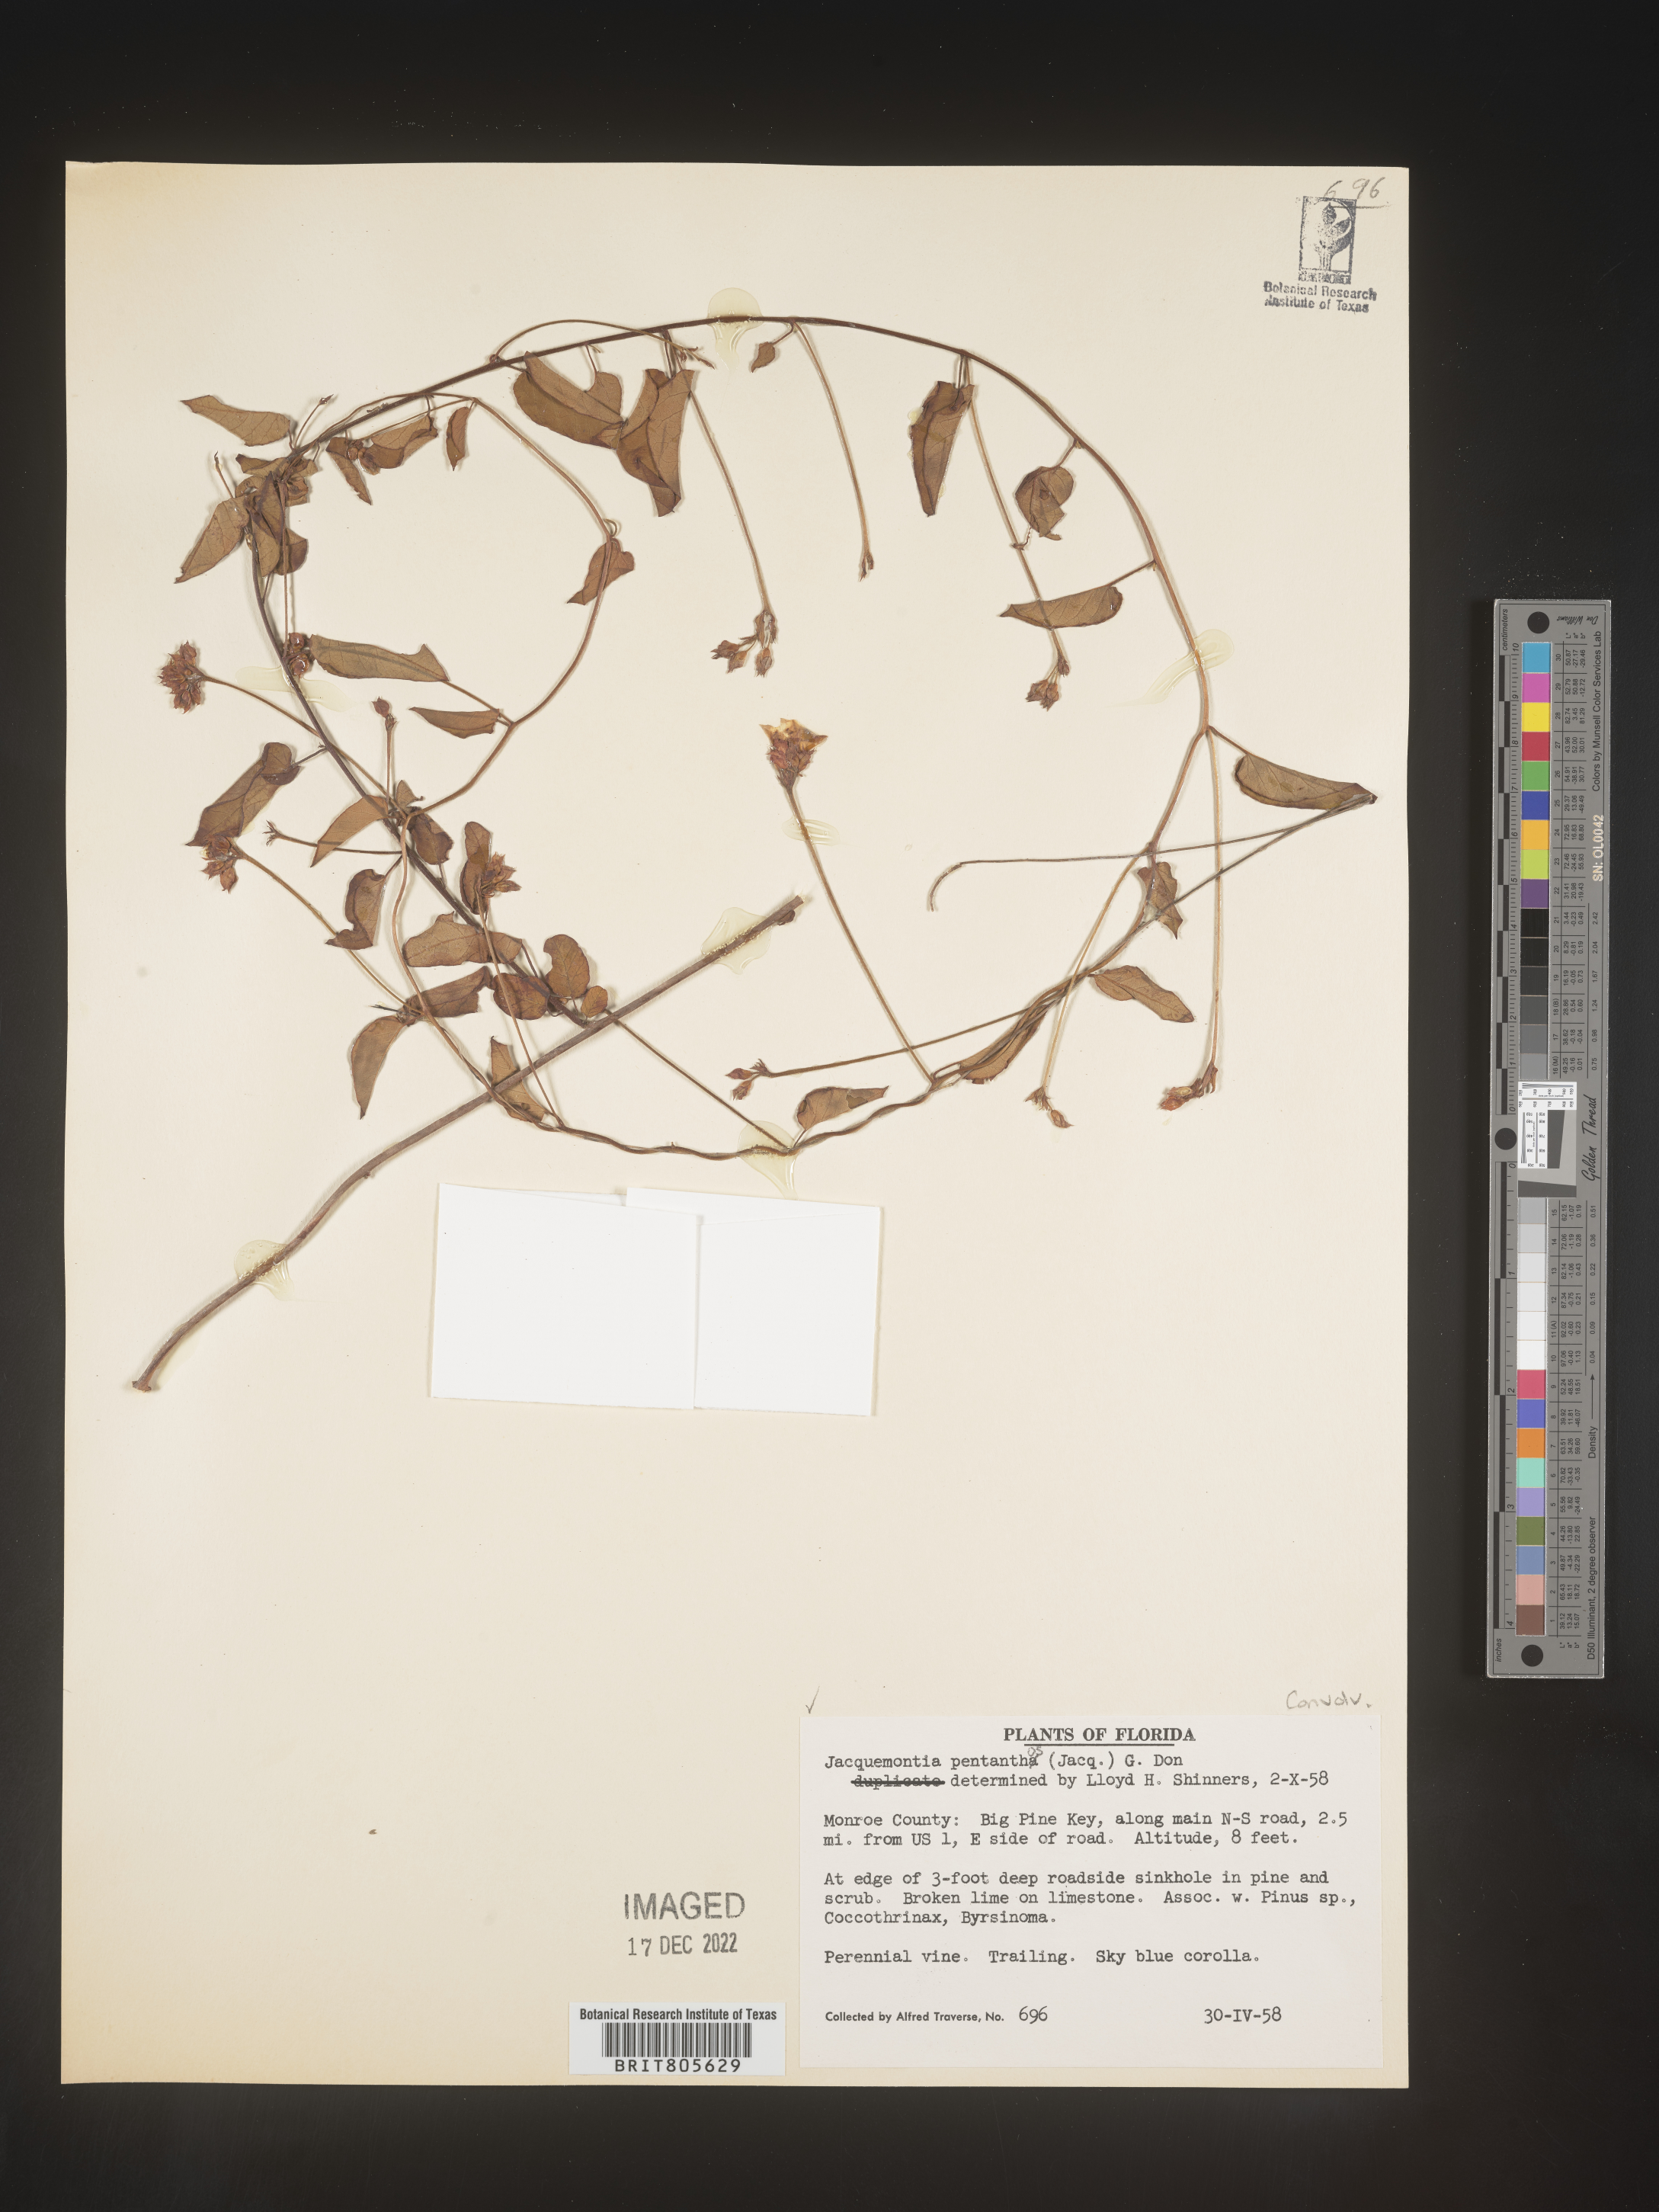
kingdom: Plantae
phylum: Tracheophyta
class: Magnoliopsida
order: Solanales
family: Convolvulaceae
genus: Jacquemontia
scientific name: Jacquemontia
